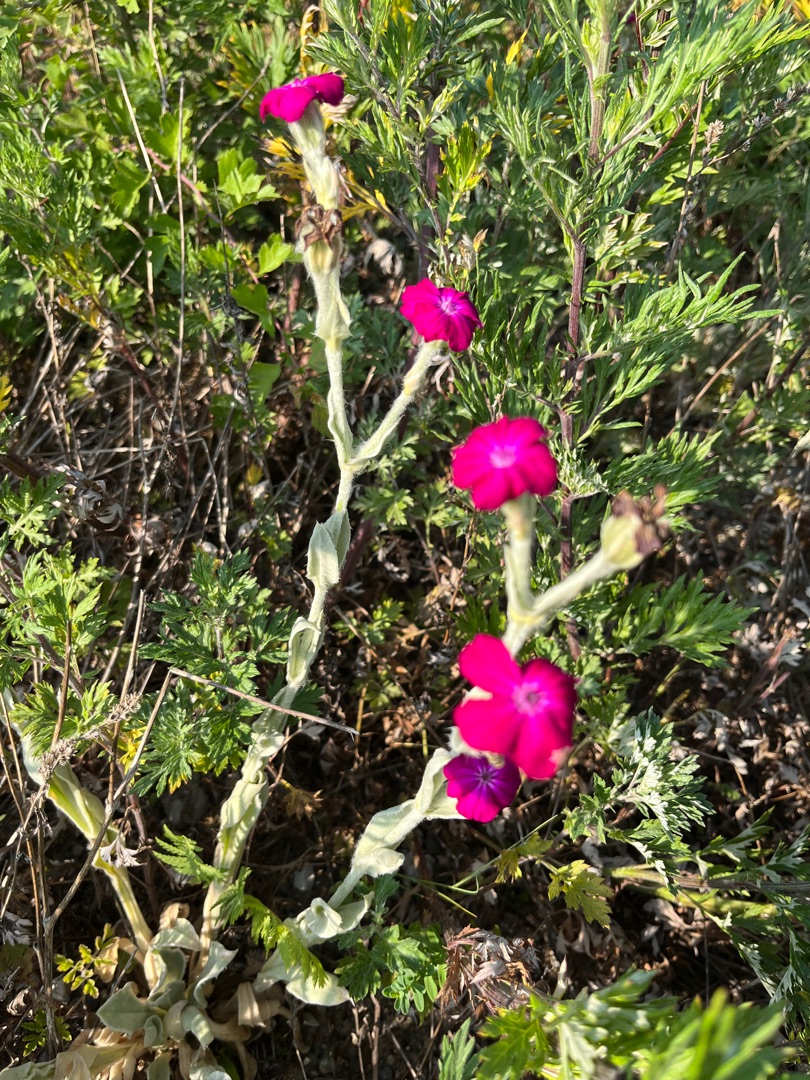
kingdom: Plantae
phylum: Tracheophyta
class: Magnoliopsida
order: Caryophyllales
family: Caryophyllaceae
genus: Silene
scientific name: Silene coronaria
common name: Fiksernellike
